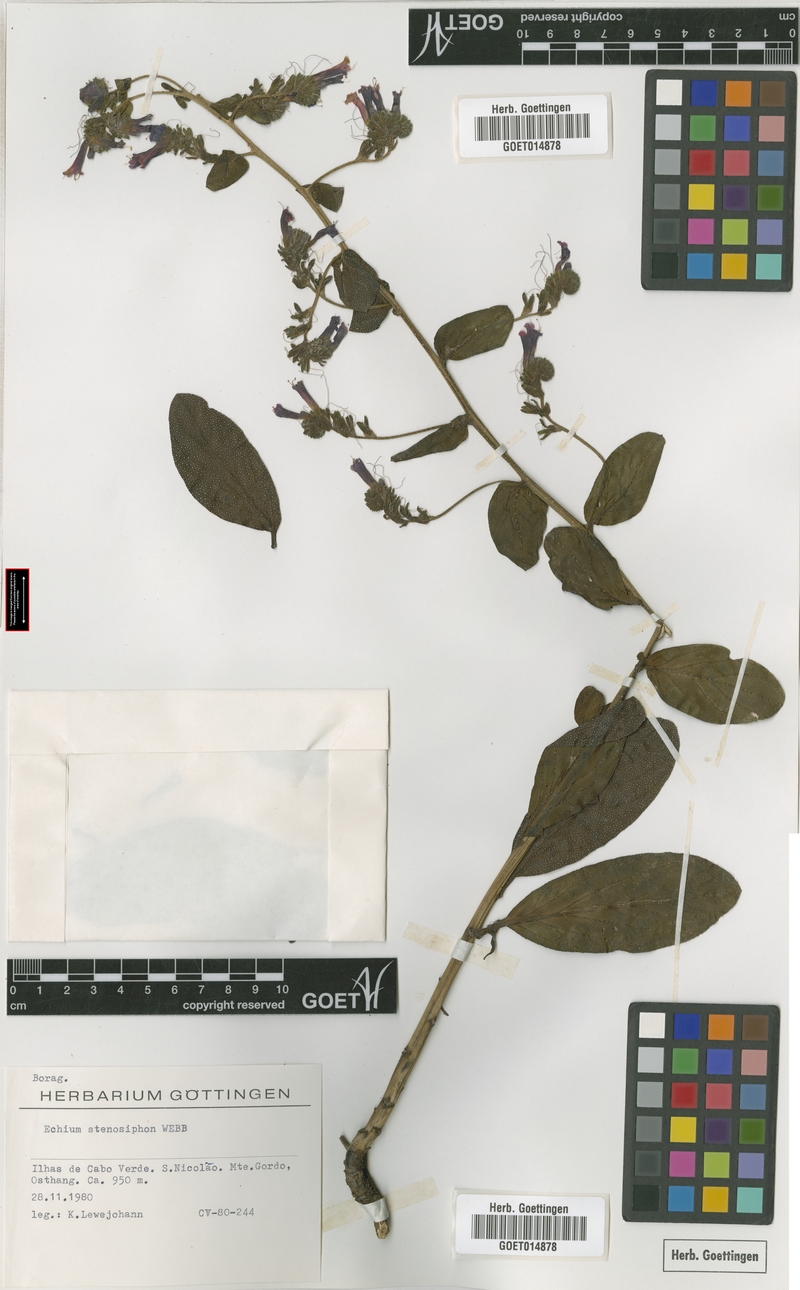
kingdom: Plantae
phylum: Tracheophyta
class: Magnoliopsida
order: Boraginales
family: Boraginaceae
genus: Echium
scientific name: Echium stenosiphon
